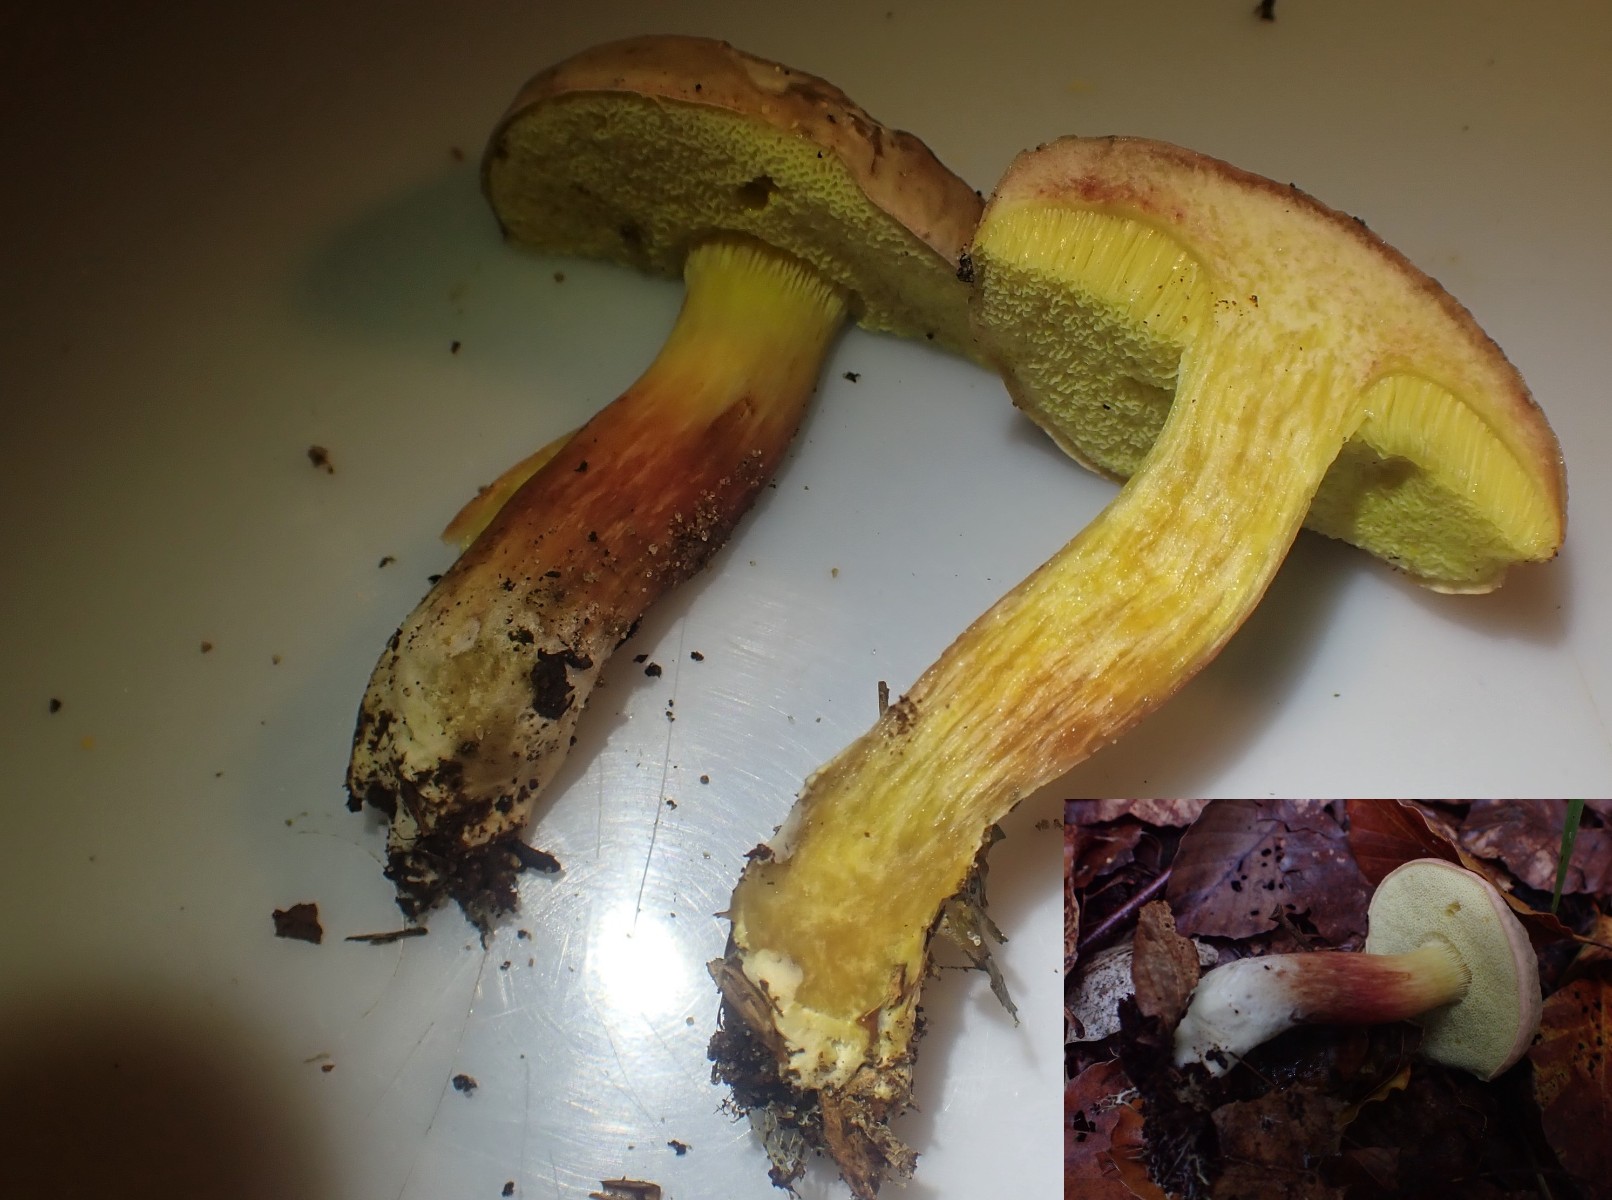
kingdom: Fungi
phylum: Basidiomycota
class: Agaricomycetes
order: Boletales
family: Boletaceae
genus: Xerocomellus
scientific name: Xerocomellus pruinatus
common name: dugget rørhat
